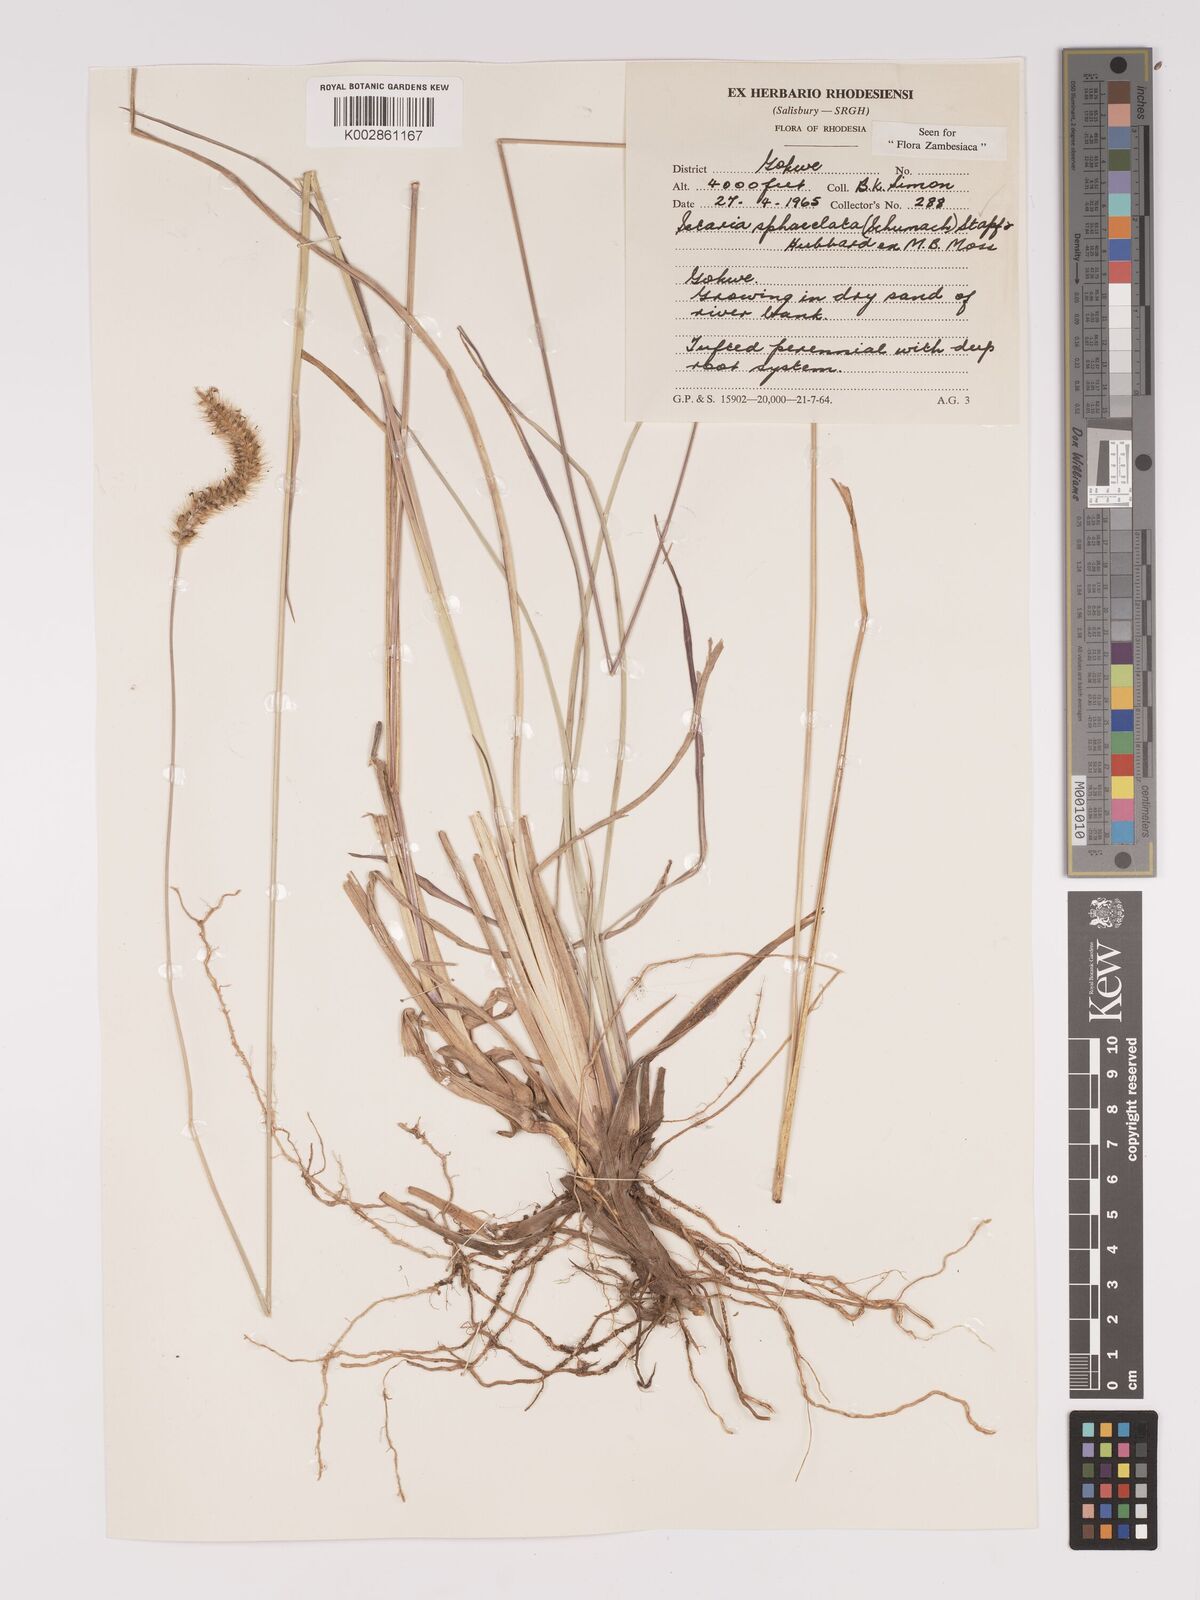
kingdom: Plantae
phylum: Tracheophyta
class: Liliopsida
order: Poales
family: Poaceae
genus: Setaria
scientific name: Setaria sphacelata
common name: African bristlegrass
